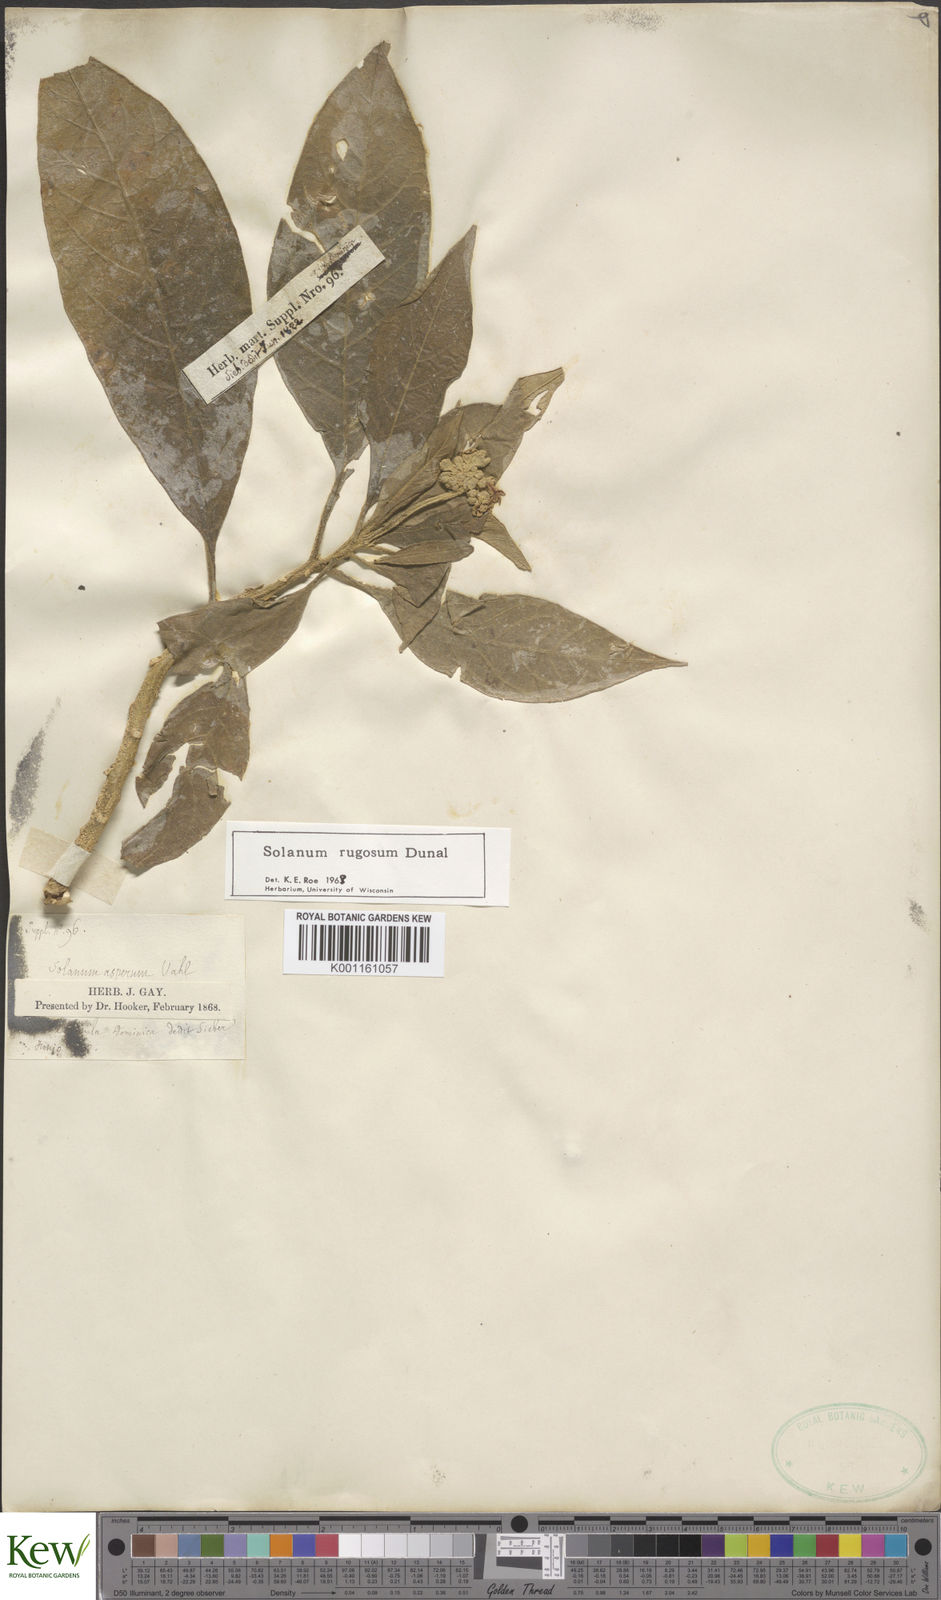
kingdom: Plantae
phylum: Tracheophyta
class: Magnoliopsida
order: Solanales
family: Solanaceae
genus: Solanum
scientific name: Solanum rugosum
